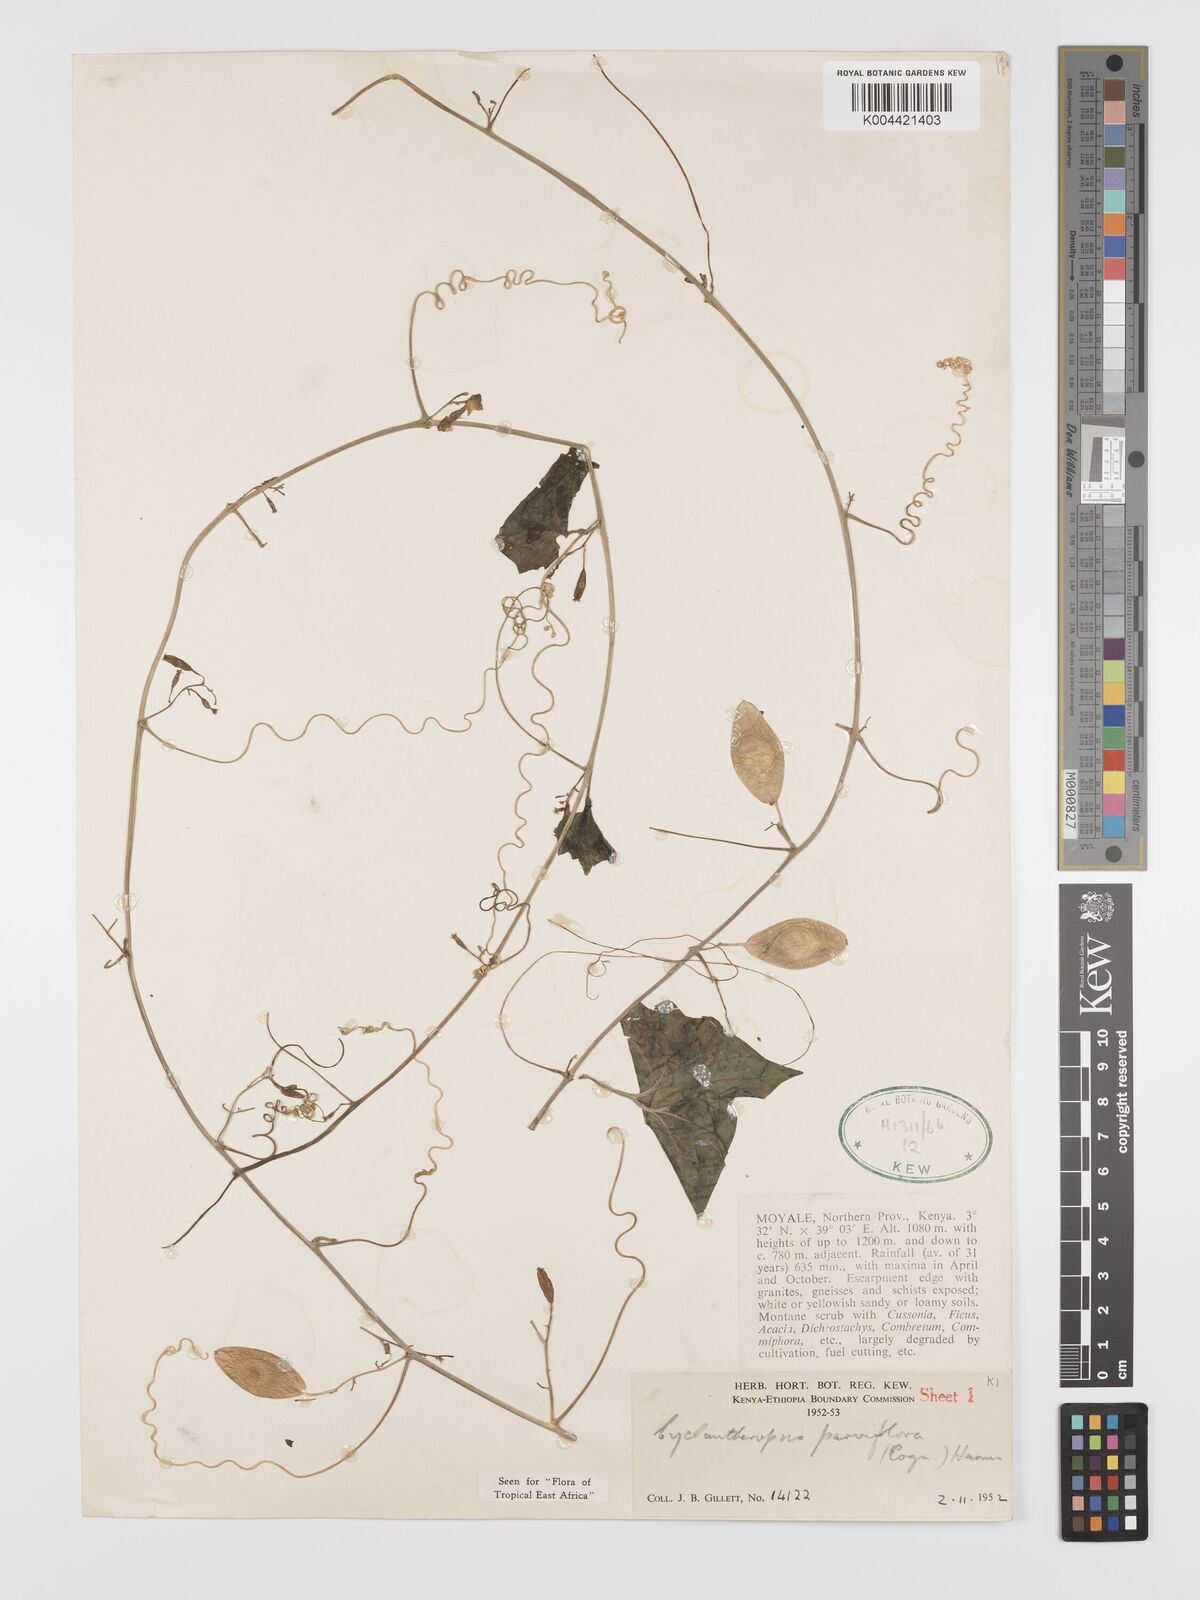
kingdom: Plantae
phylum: Tracheophyta
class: Magnoliopsida
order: Cucurbitales
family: Cucurbitaceae
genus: Cyclantheropsis
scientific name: Cyclantheropsis parviflora
